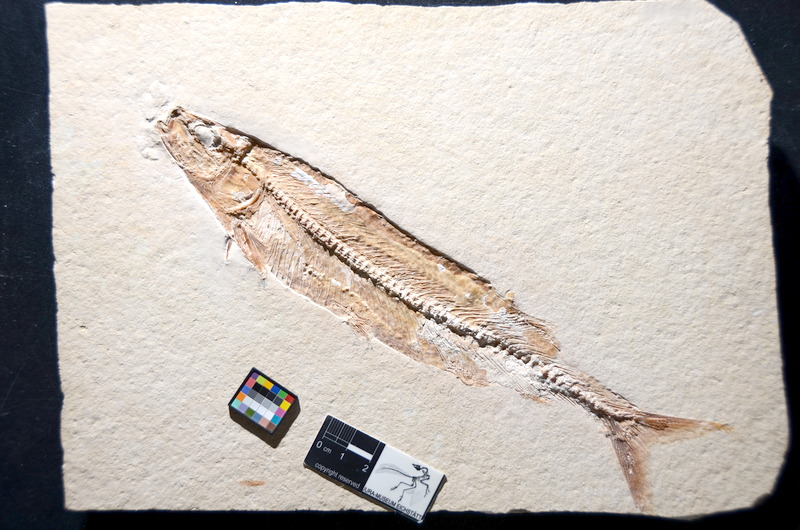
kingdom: Animalia
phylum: Chordata
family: Allothrissopidae
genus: Allothrissops
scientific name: Allothrissops mesogaster
